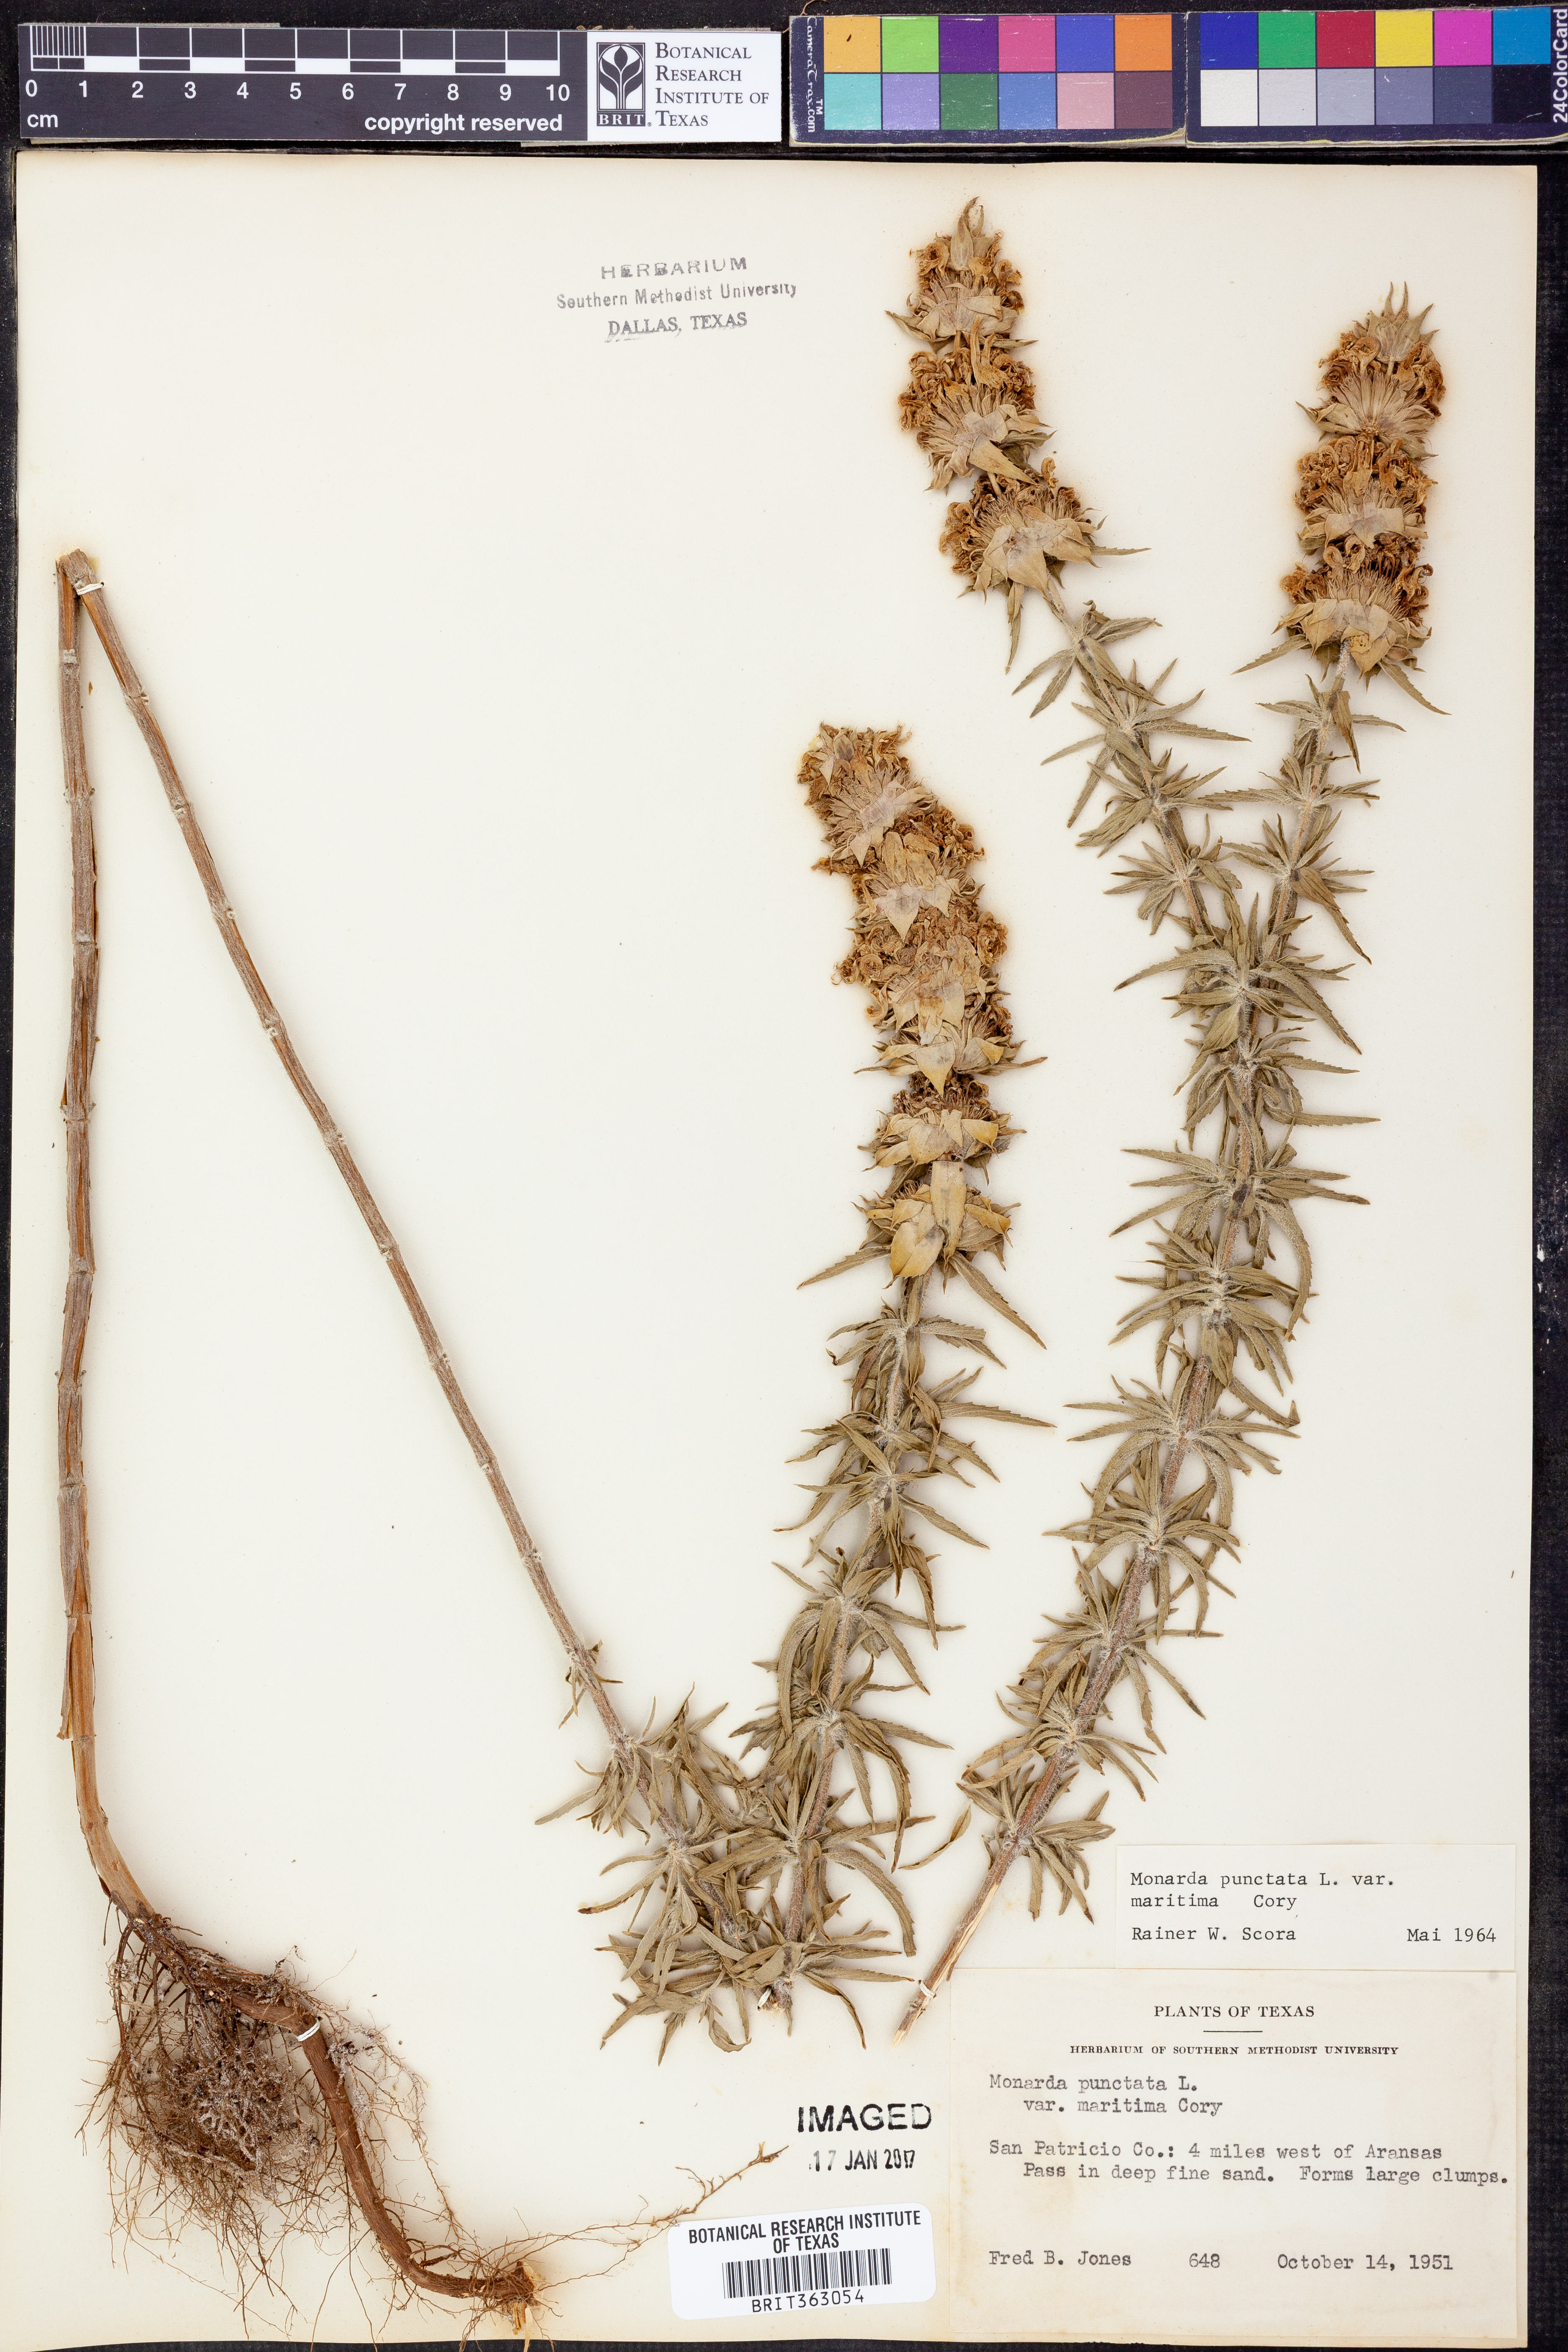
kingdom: Plantae
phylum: Tracheophyta
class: Magnoliopsida
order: Lamiales
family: Lamiaceae
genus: Monarda
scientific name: Monarda maritima
